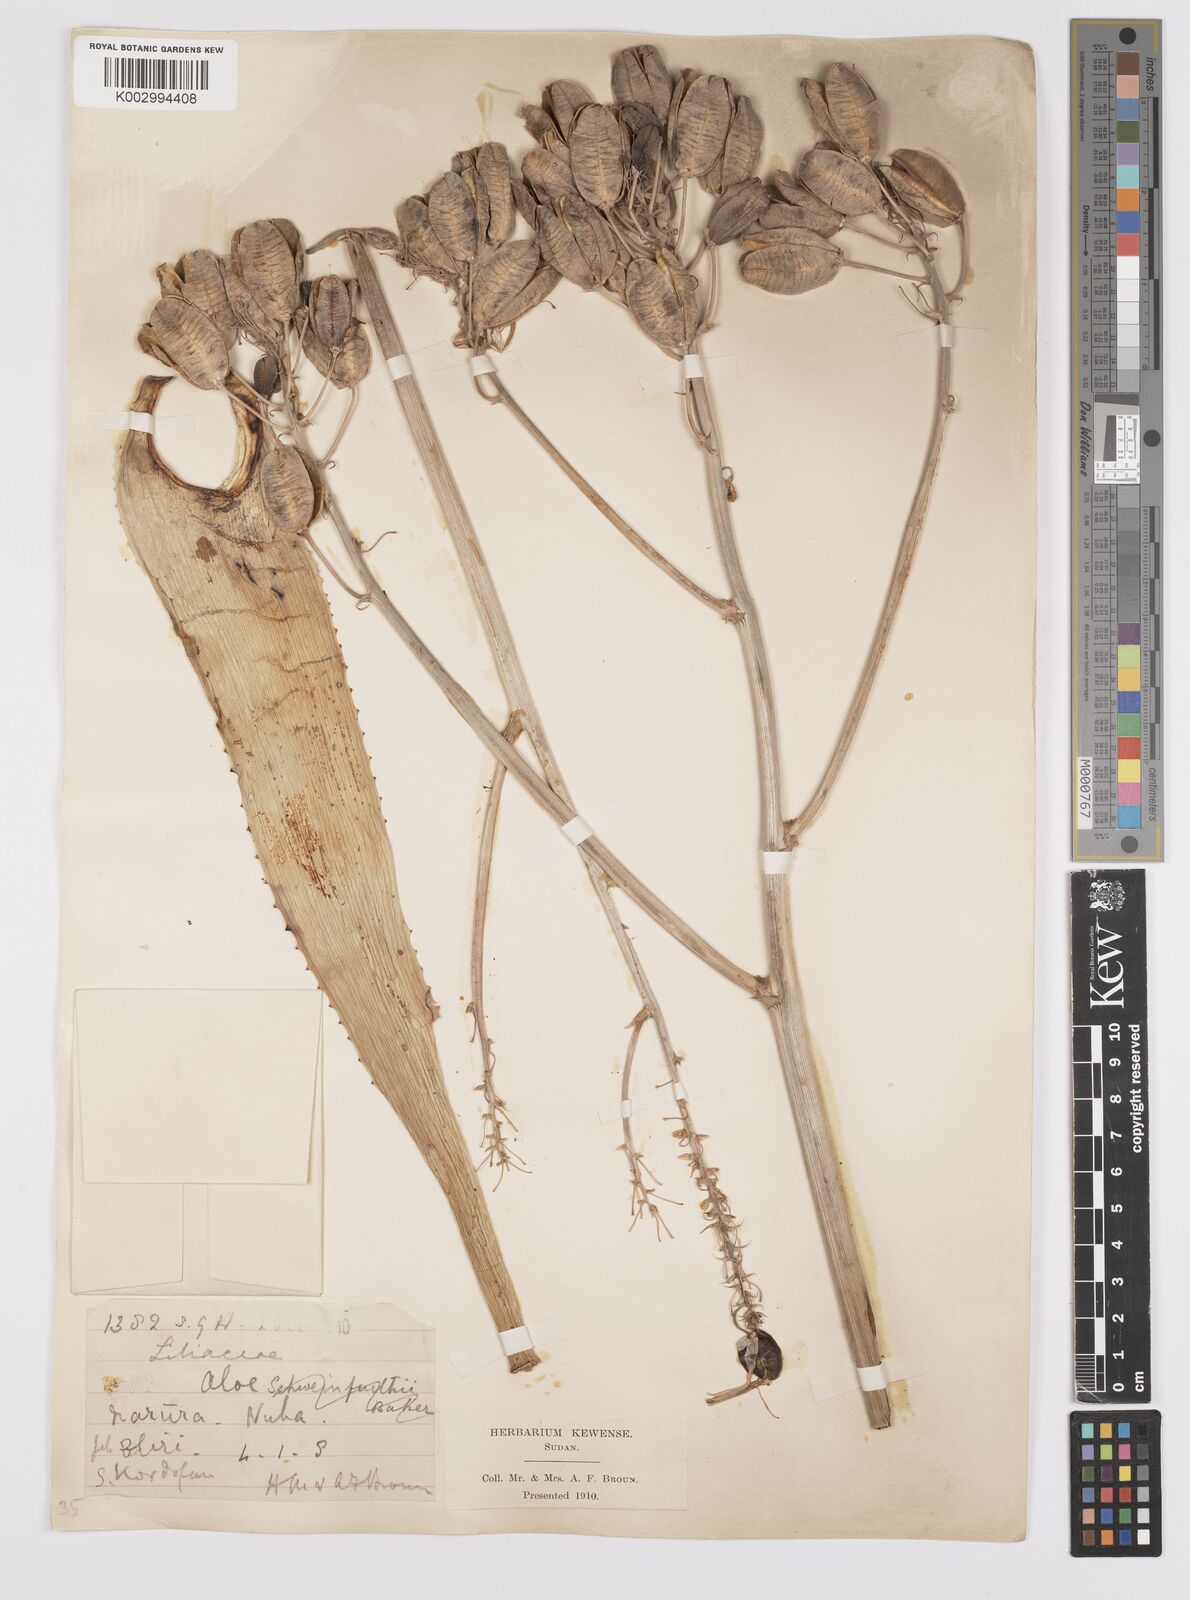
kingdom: Plantae
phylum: Tracheophyta
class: Liliopsida
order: Asparagales
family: Asphodelaceae
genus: Aloe
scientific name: Aloe
